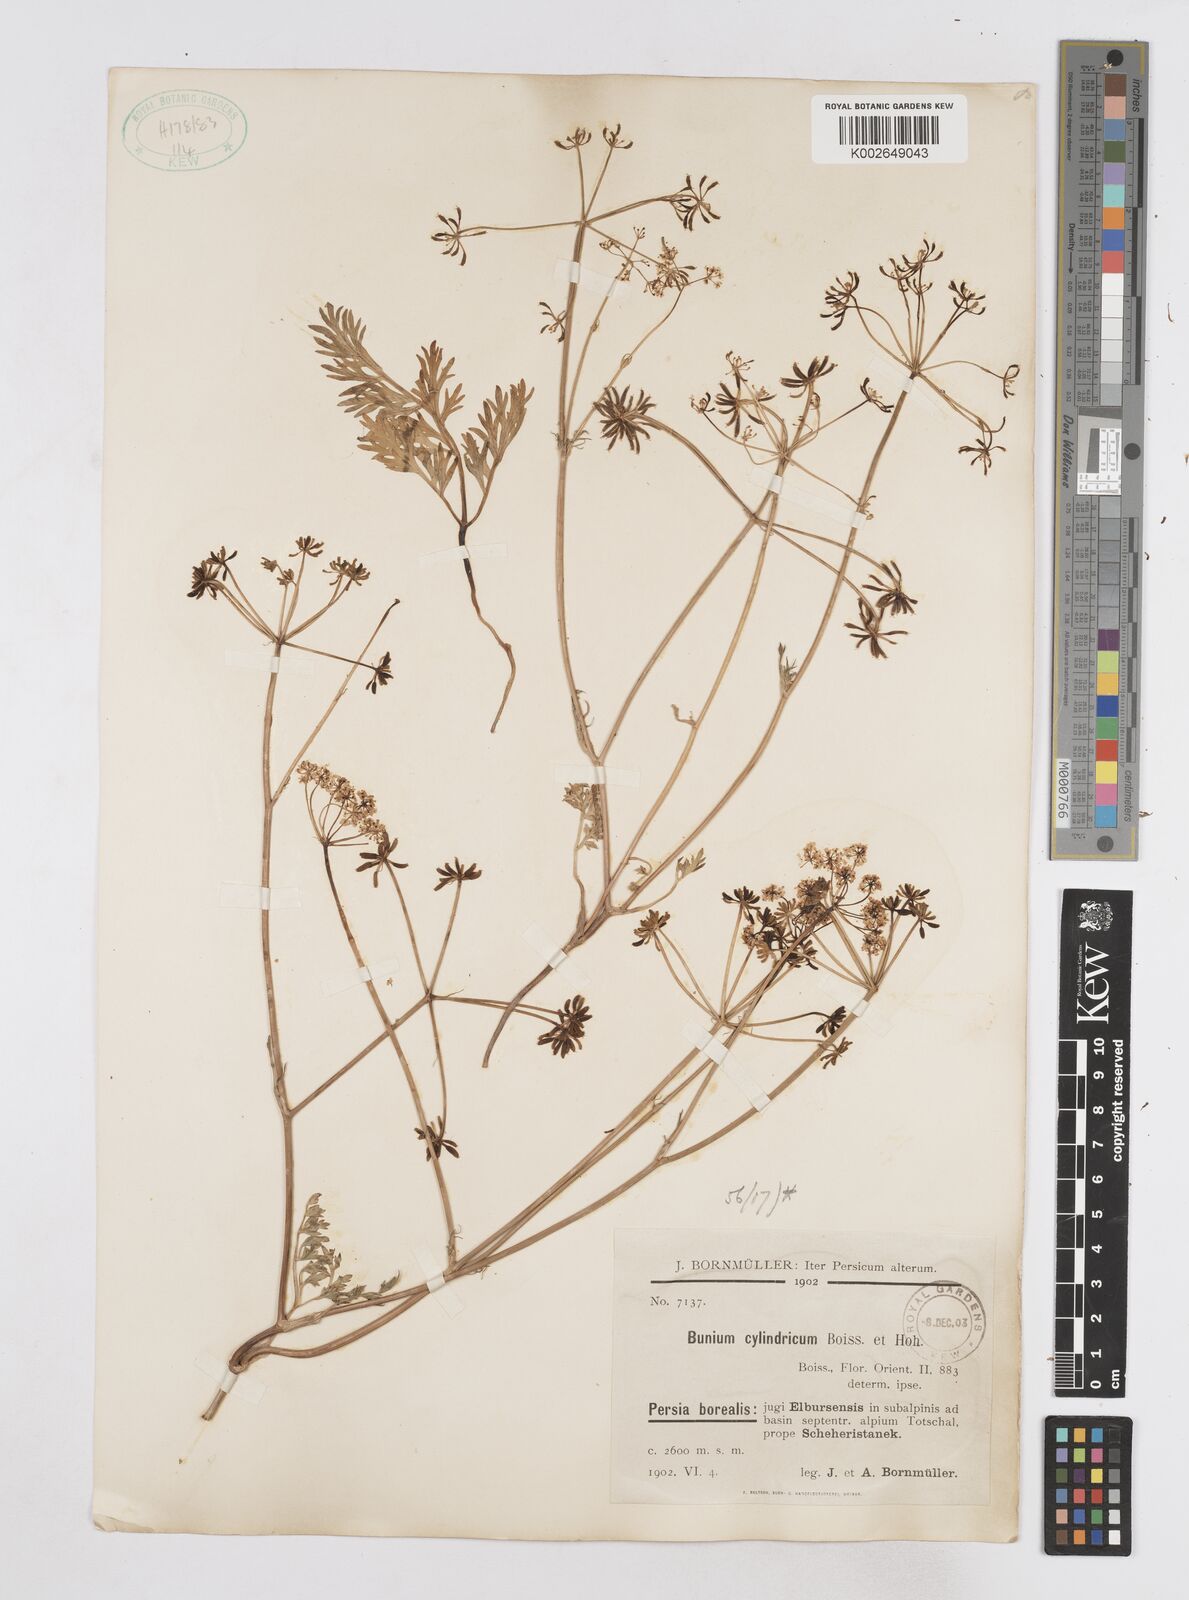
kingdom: Plantae
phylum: Tracheophyta
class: Magnoliopsida
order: Apiales
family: Apiaceae
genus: Elwendia
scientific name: Elwendia cylindrica
